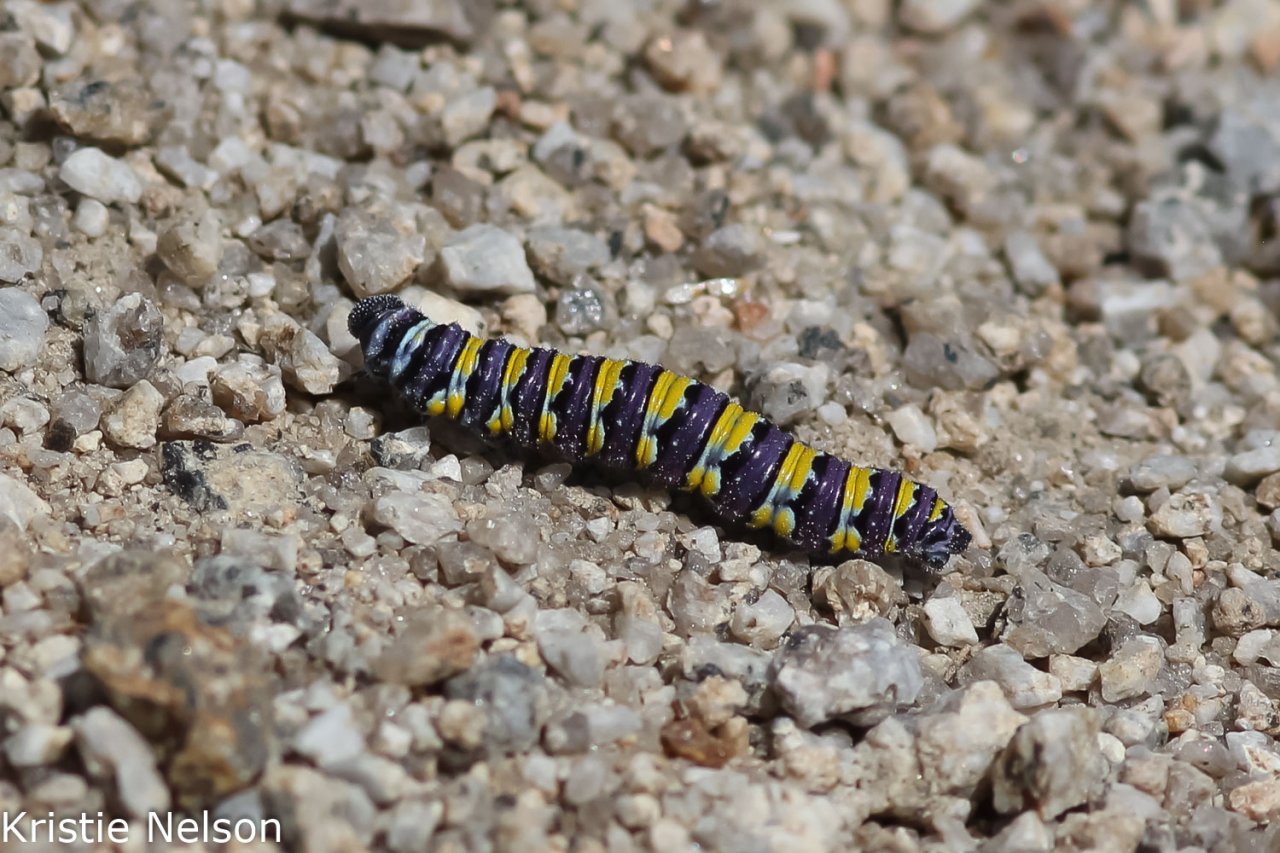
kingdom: Animalia
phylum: Arthropoda
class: Insecta
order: Lepidoptera
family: Pieridae
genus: Pontia
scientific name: Pontia sisymbrii
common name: Spring White
